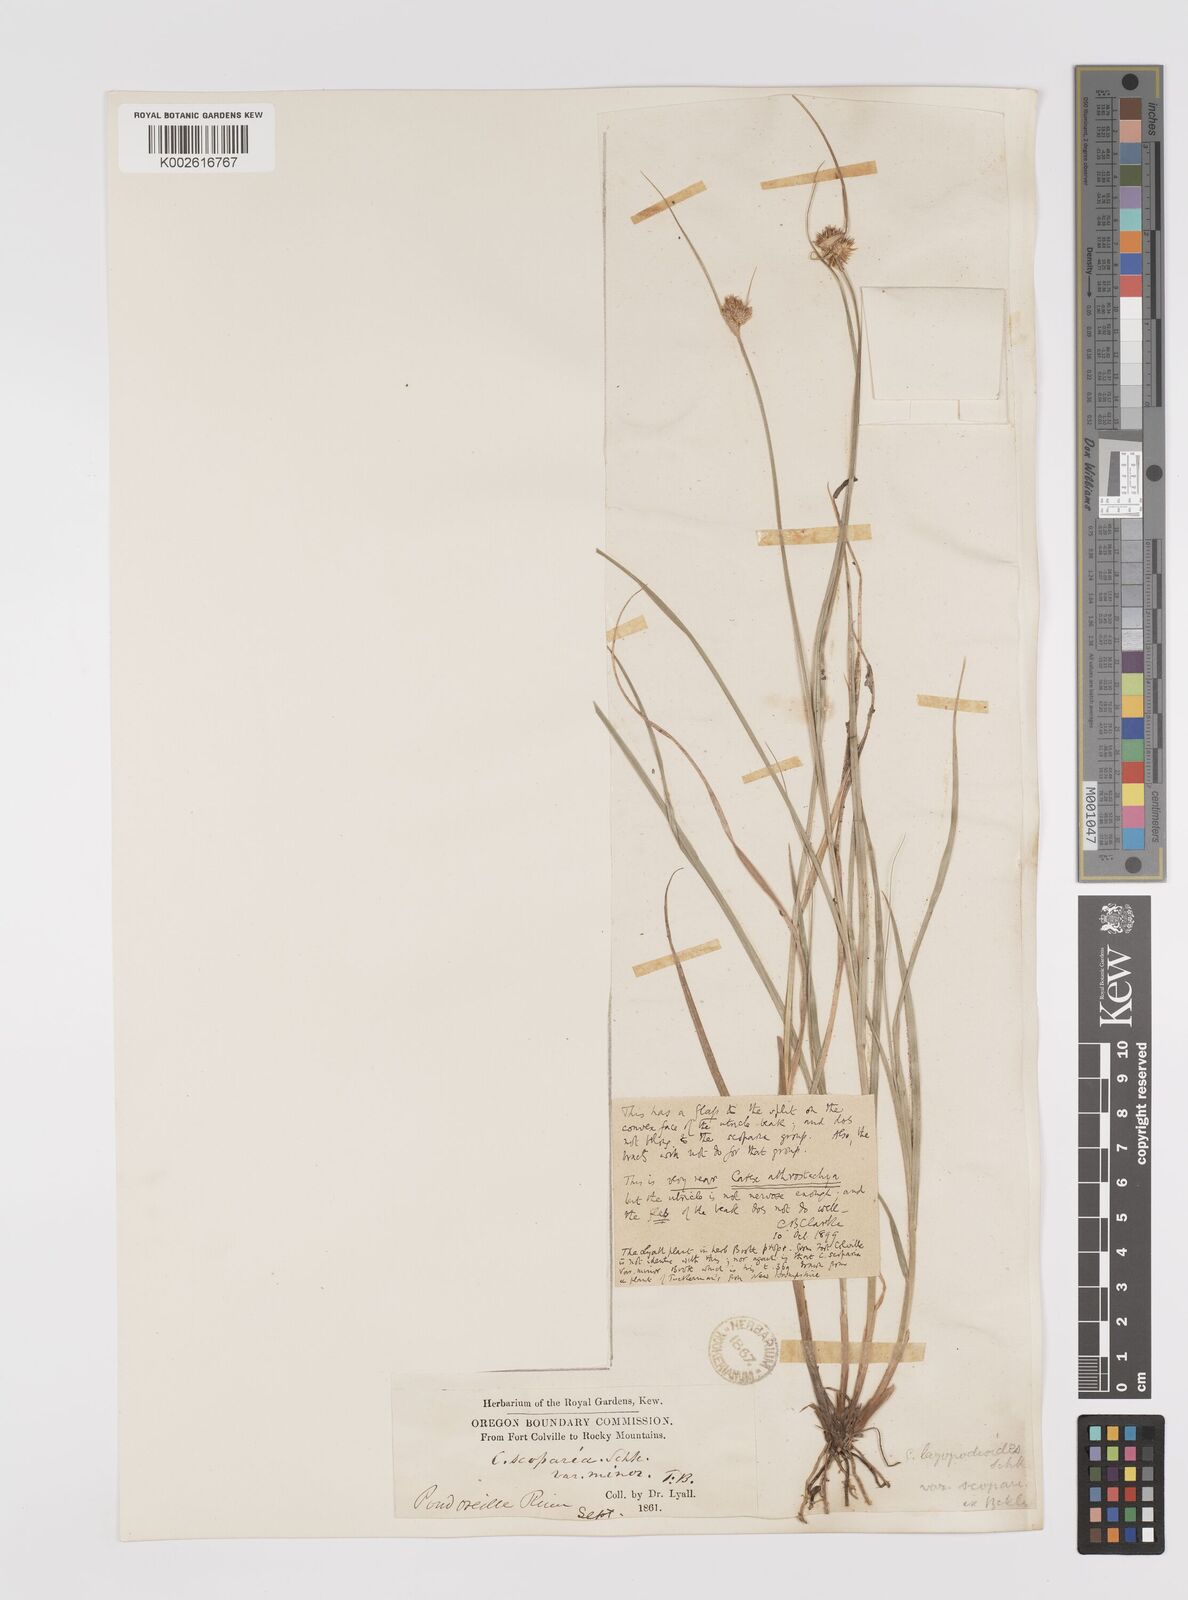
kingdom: Plantae
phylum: Tracheophyta
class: Liliopsida
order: Poales
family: Cyperaceae
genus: Carex
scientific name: Carex athrostachya
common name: Slenderbeak sedge
